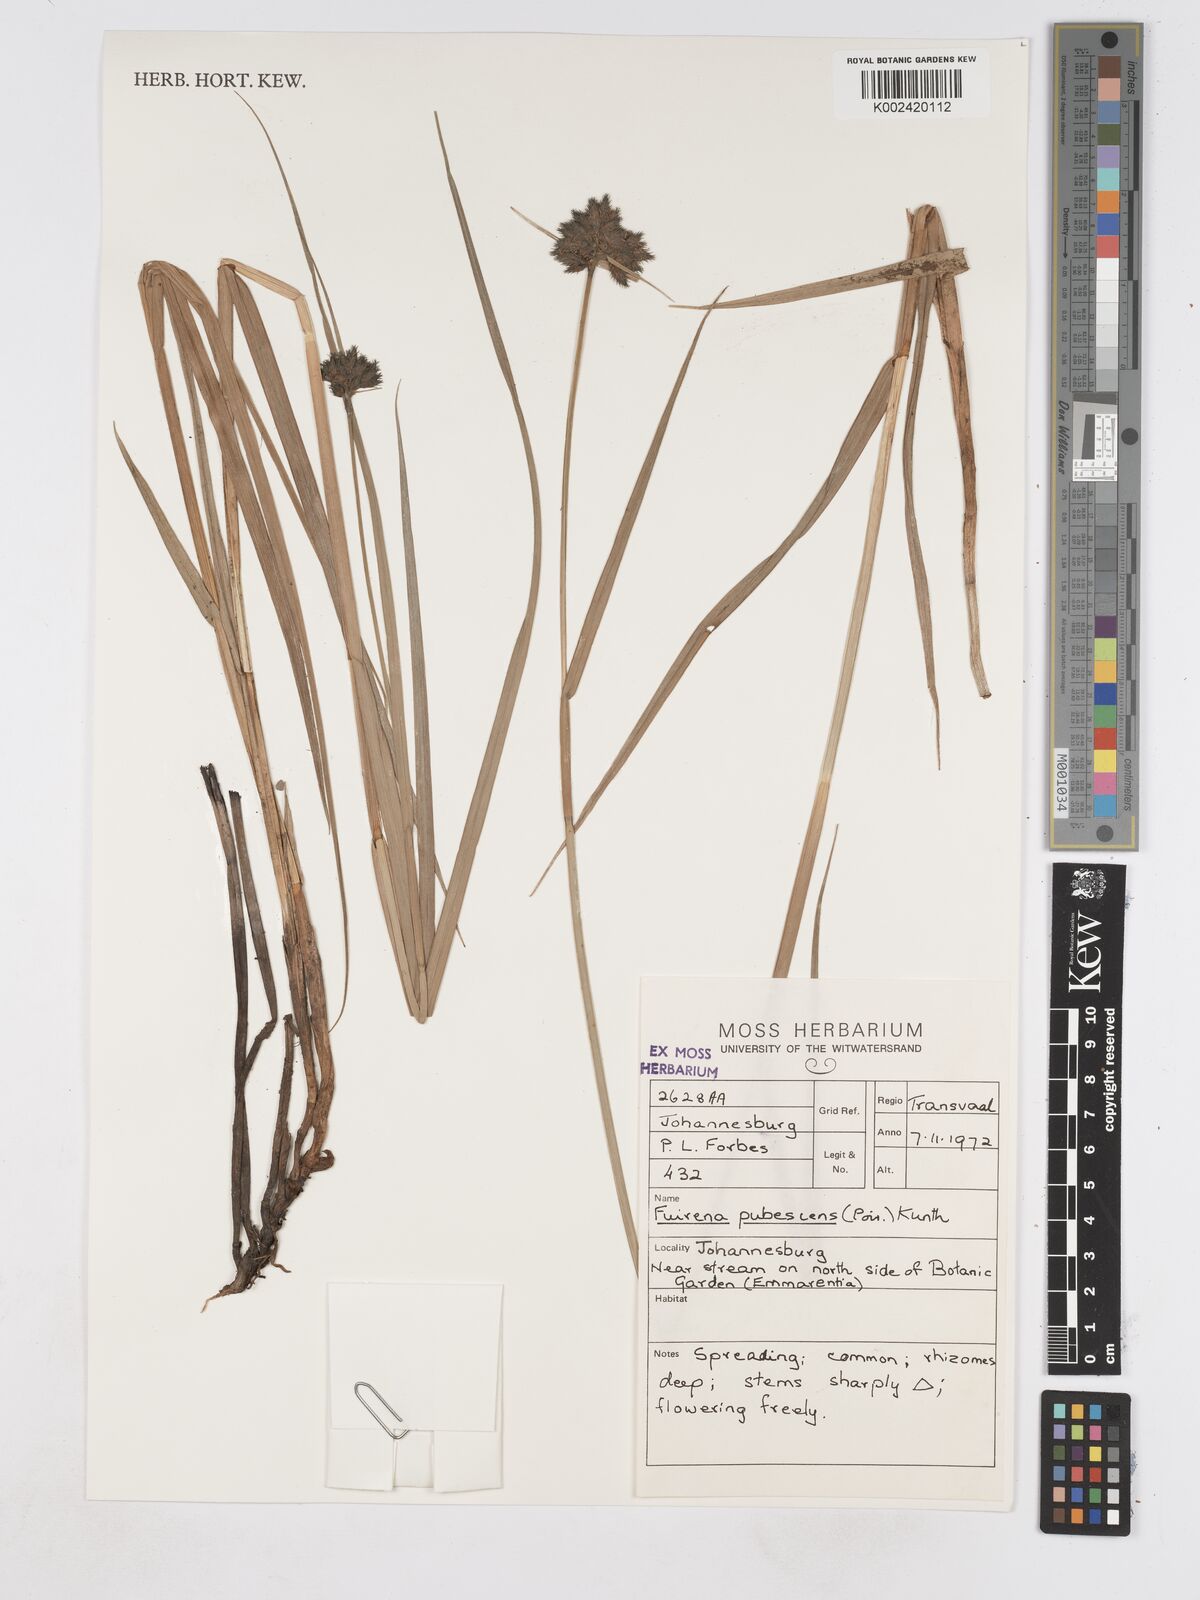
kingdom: Plantae
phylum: Tracheophyta
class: Liliopsida
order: Poales
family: Cyperaceae
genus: Fuirena
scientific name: Fuirena pubescens
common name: Hairy sedge
